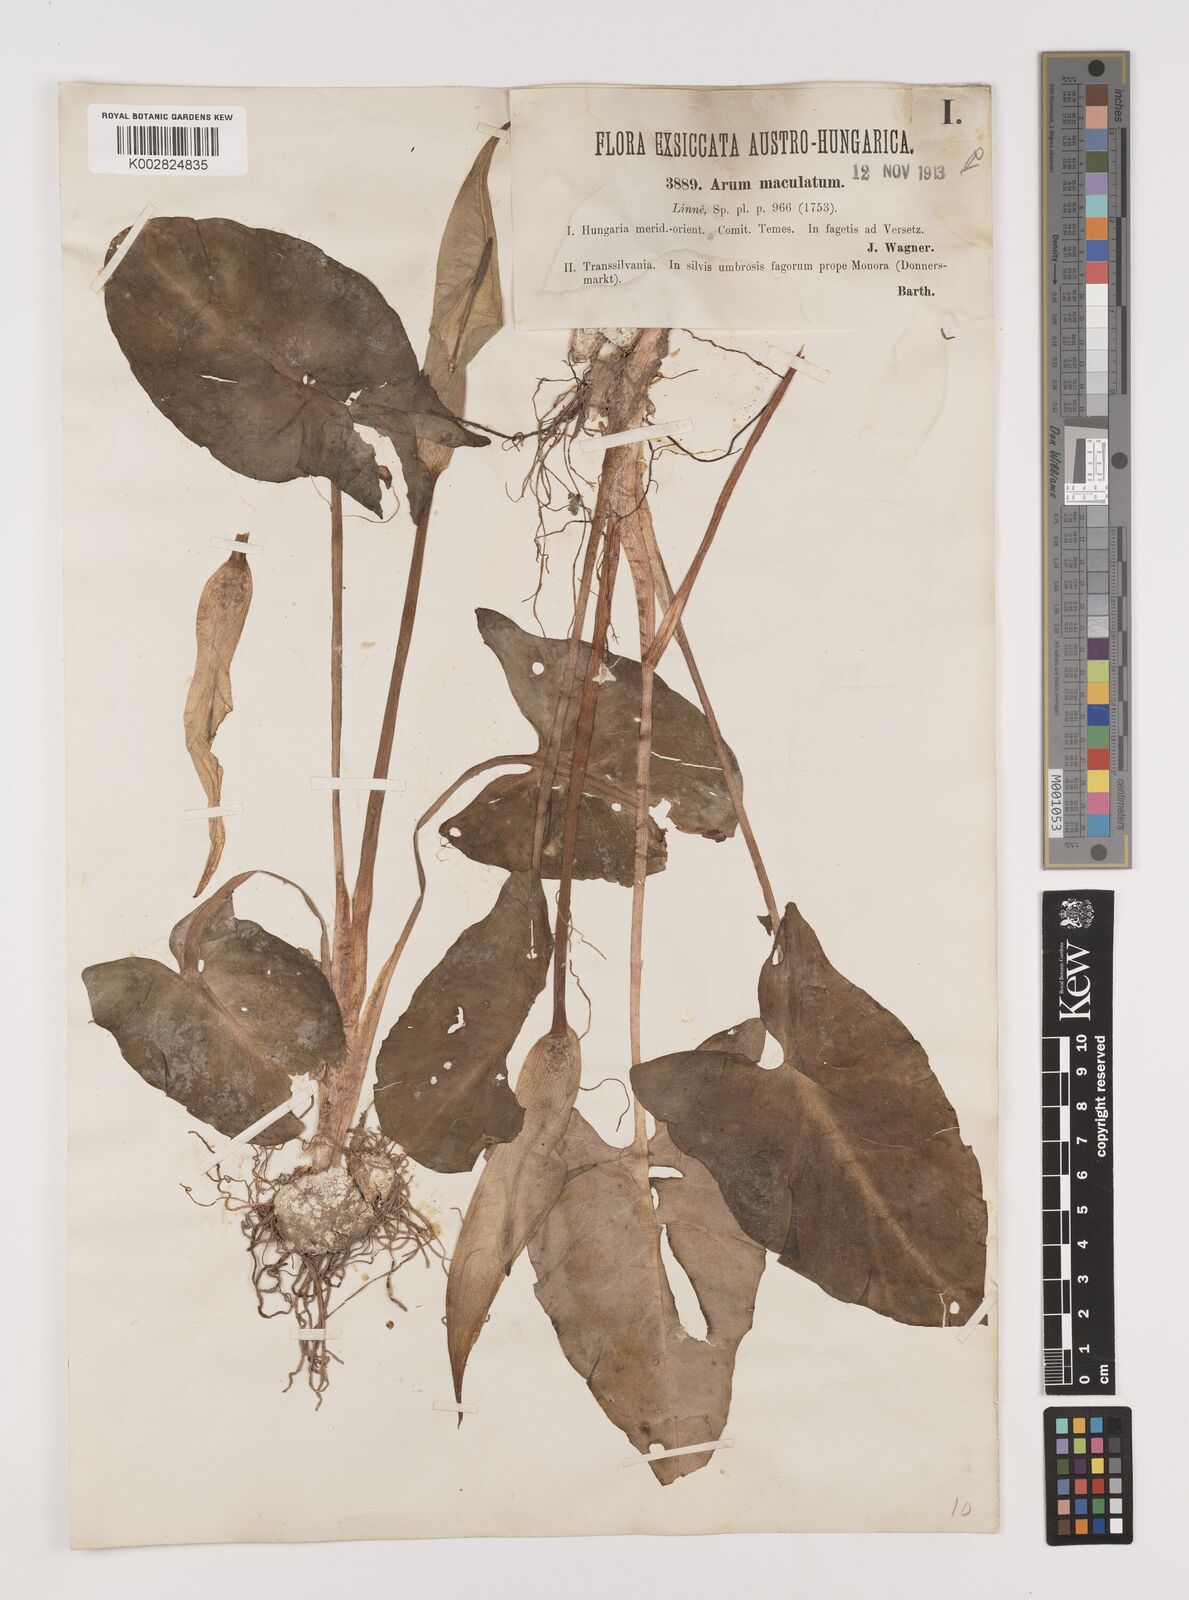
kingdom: Plantae
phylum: Tracheophyta
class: Liliopsida
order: Alismatales
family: Araceae
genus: Arum
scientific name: Arum maculatum
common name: Lords-and-ladies
